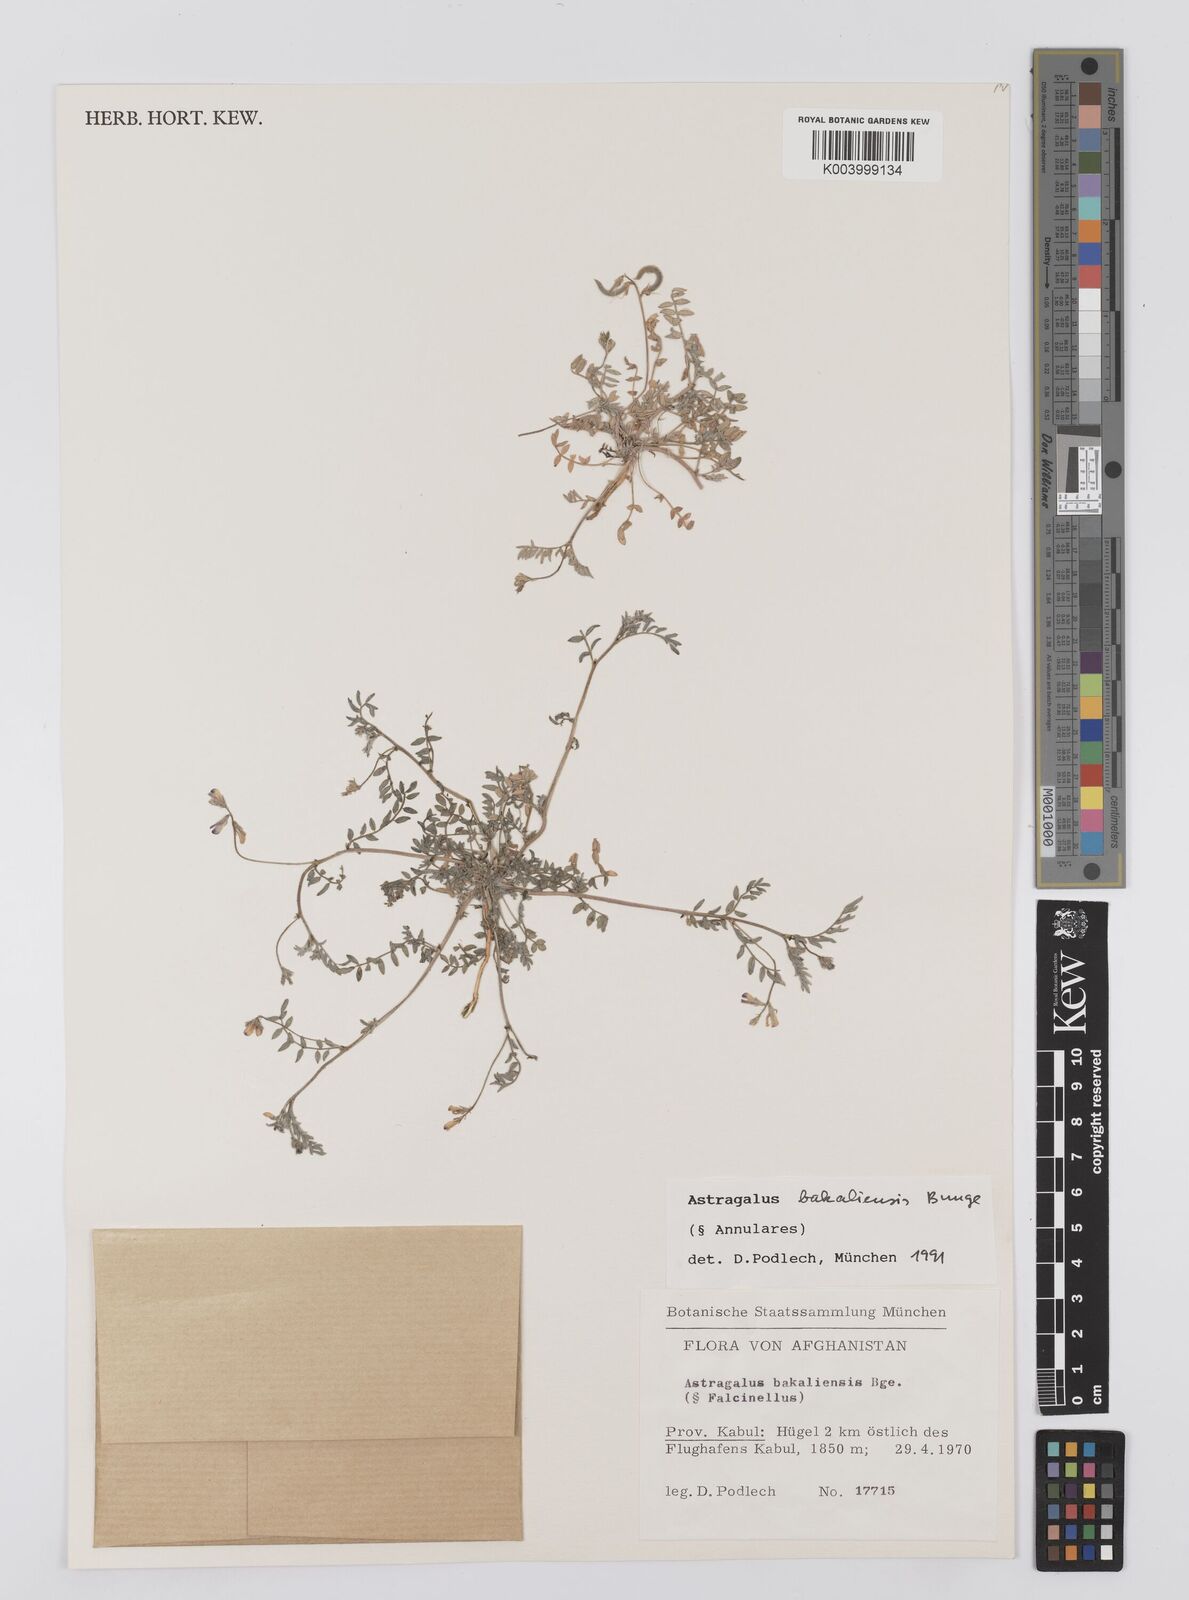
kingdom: Plantae
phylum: Tracheophyta
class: Magnoliopsida
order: Fabales
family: Fabaceae
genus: Astragalus
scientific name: Astragalus bakaliensis
